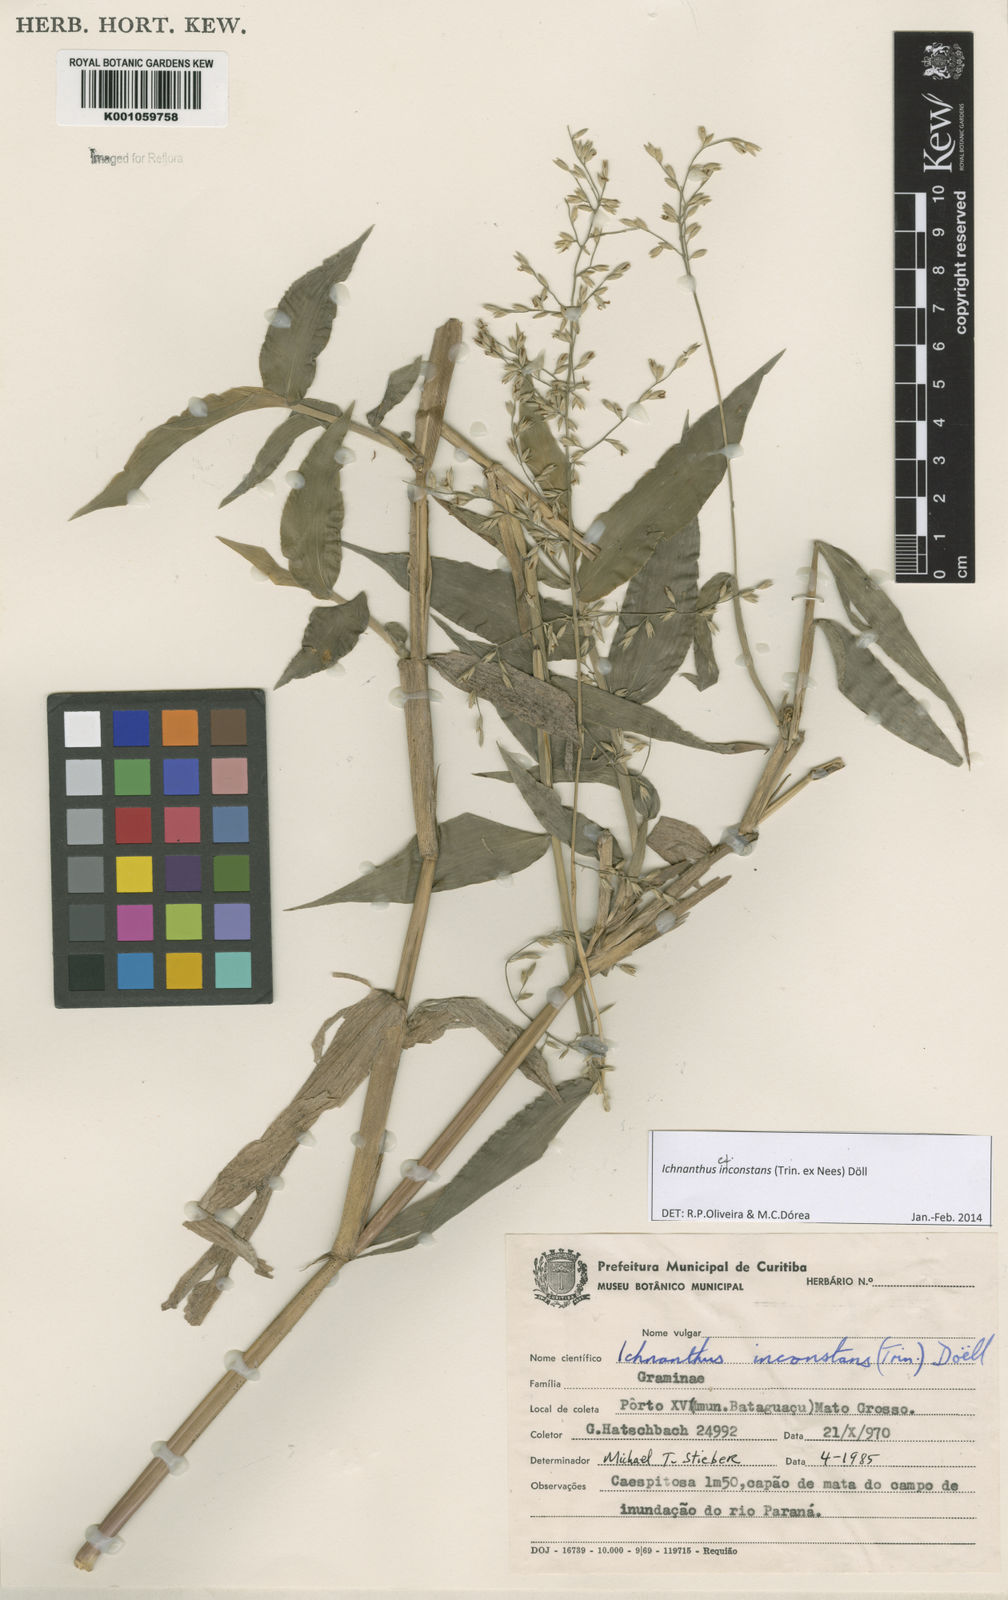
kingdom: Plantae
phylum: Tracheophyta
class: Liliopsida
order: Poales
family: Poaceae
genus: Ichnanthus
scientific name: Ichnanthus
